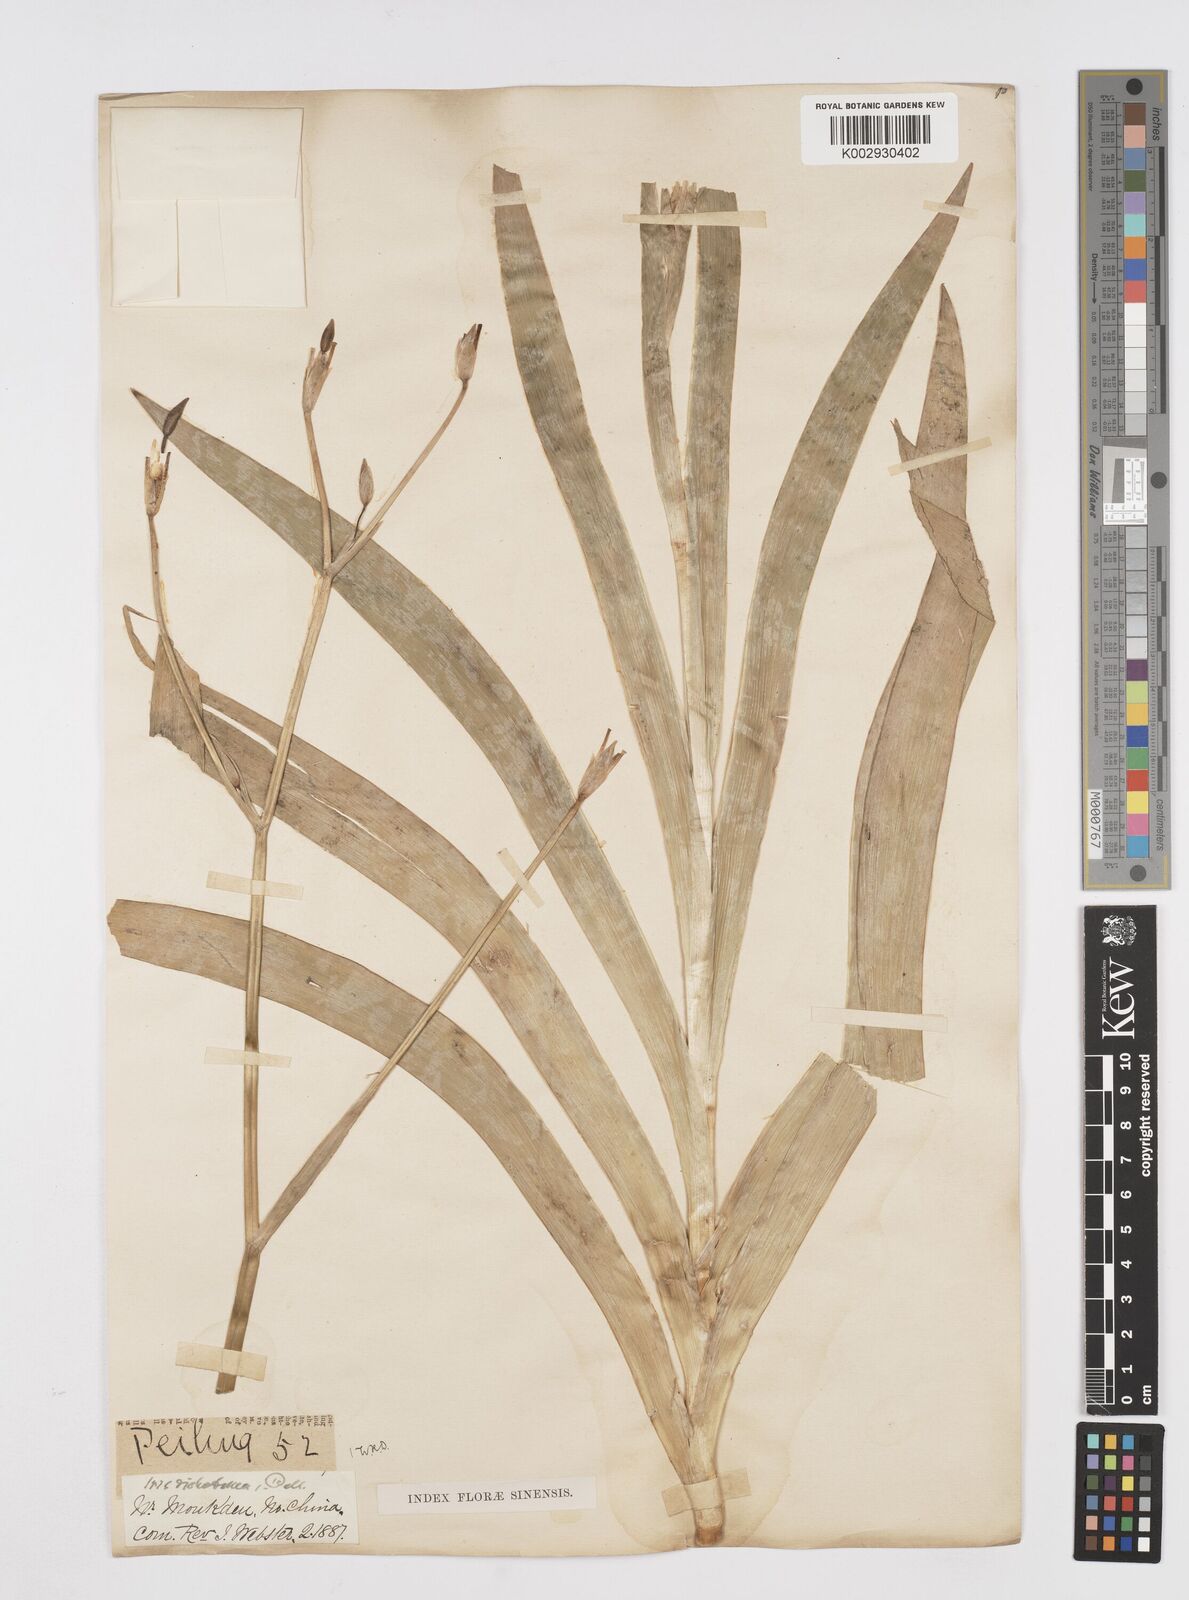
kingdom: Plantae
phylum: Tracheophyta
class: Liliopsida
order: Asparagales
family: Iridaceae
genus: Iris
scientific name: Iris dichotoma
